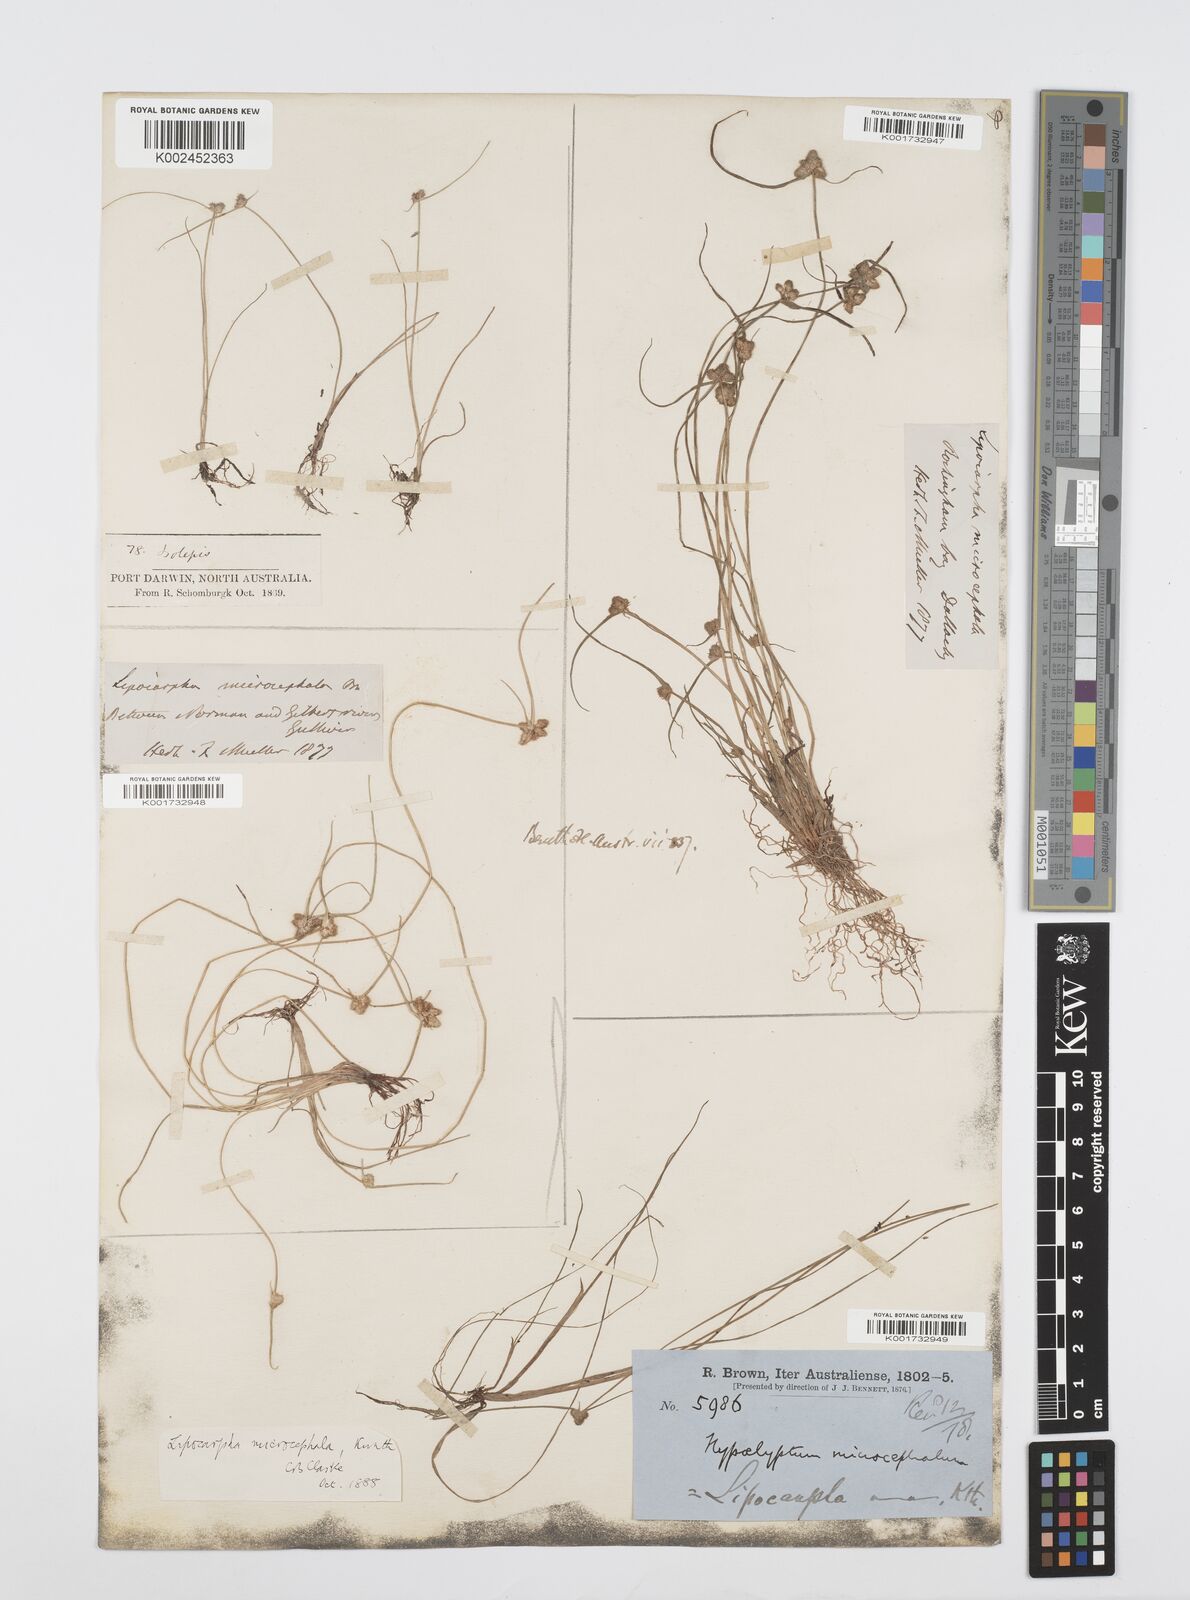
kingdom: Plantae
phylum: Tracheophyta
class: Liliopsida
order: Poales
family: Cyperaceae
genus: Cyperus
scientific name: Cyperus microcephalus
